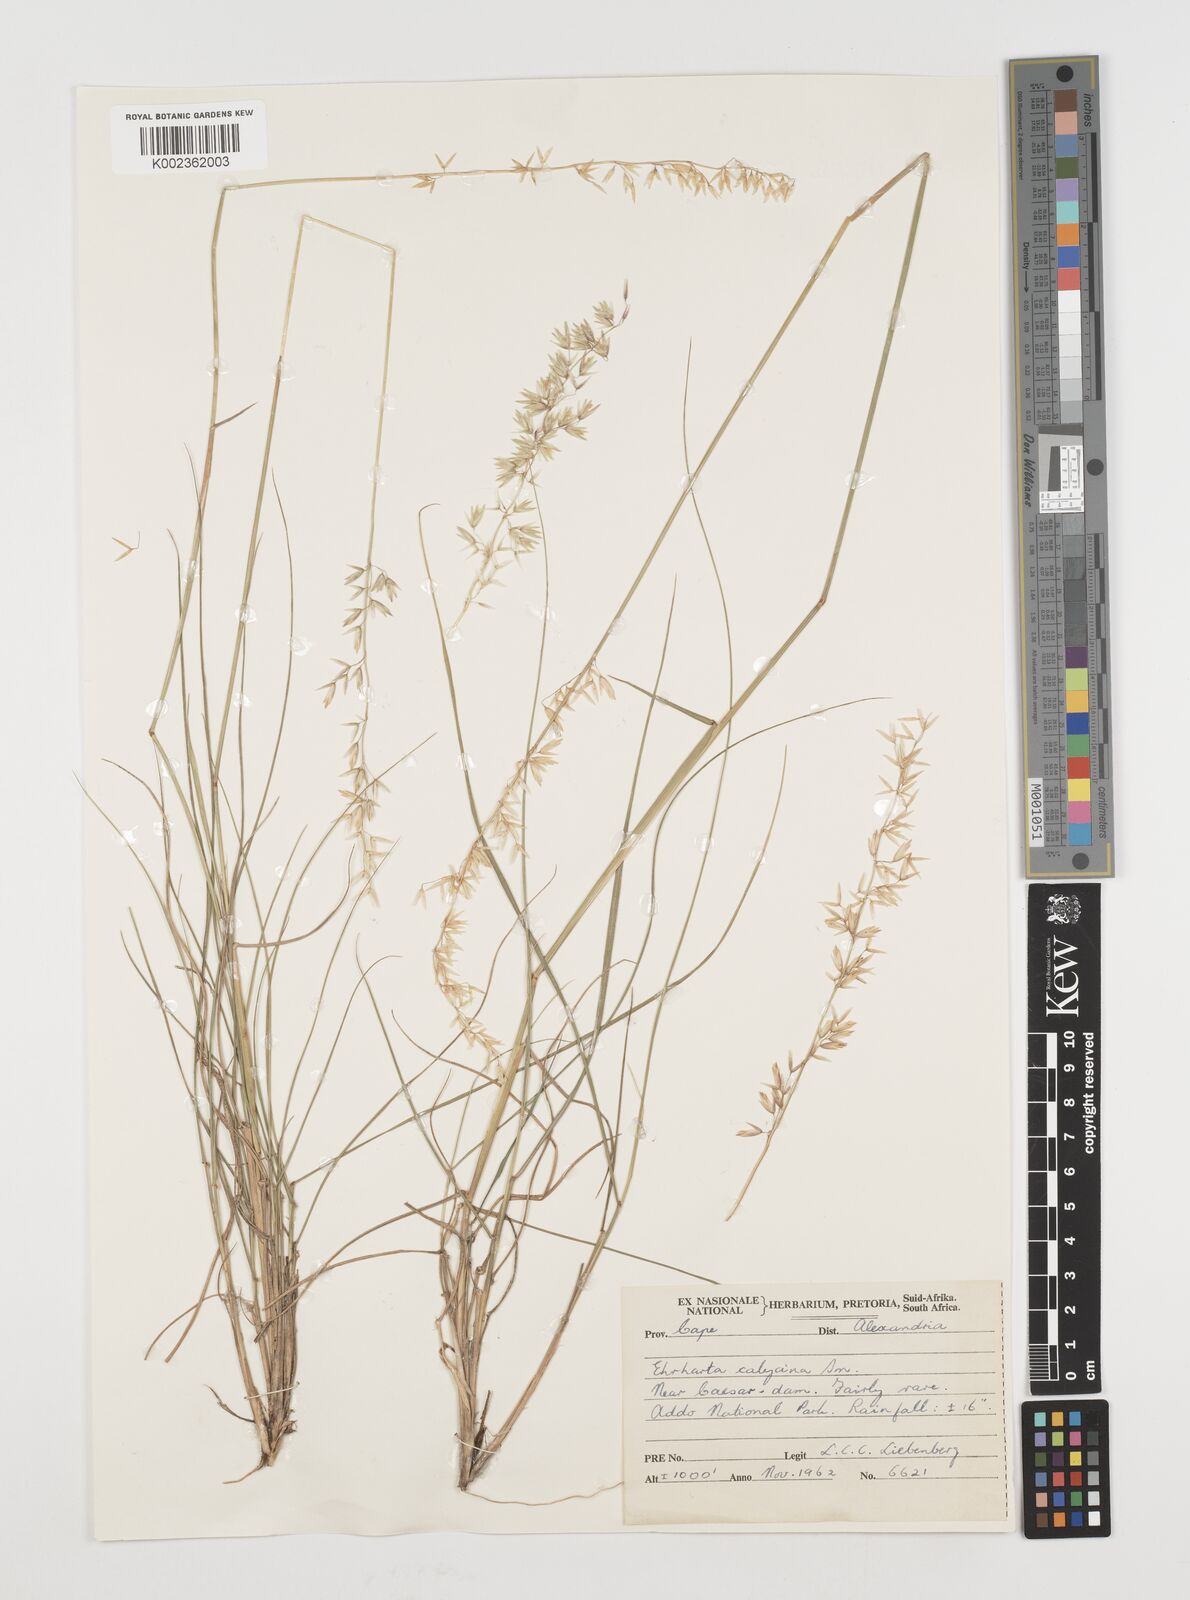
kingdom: Plantae
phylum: Tracheophyta
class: Liliopsida
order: Poales
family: Poaceae
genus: Ehrharta
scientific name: Ehrharta calycina
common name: Perennial veldtgrass
